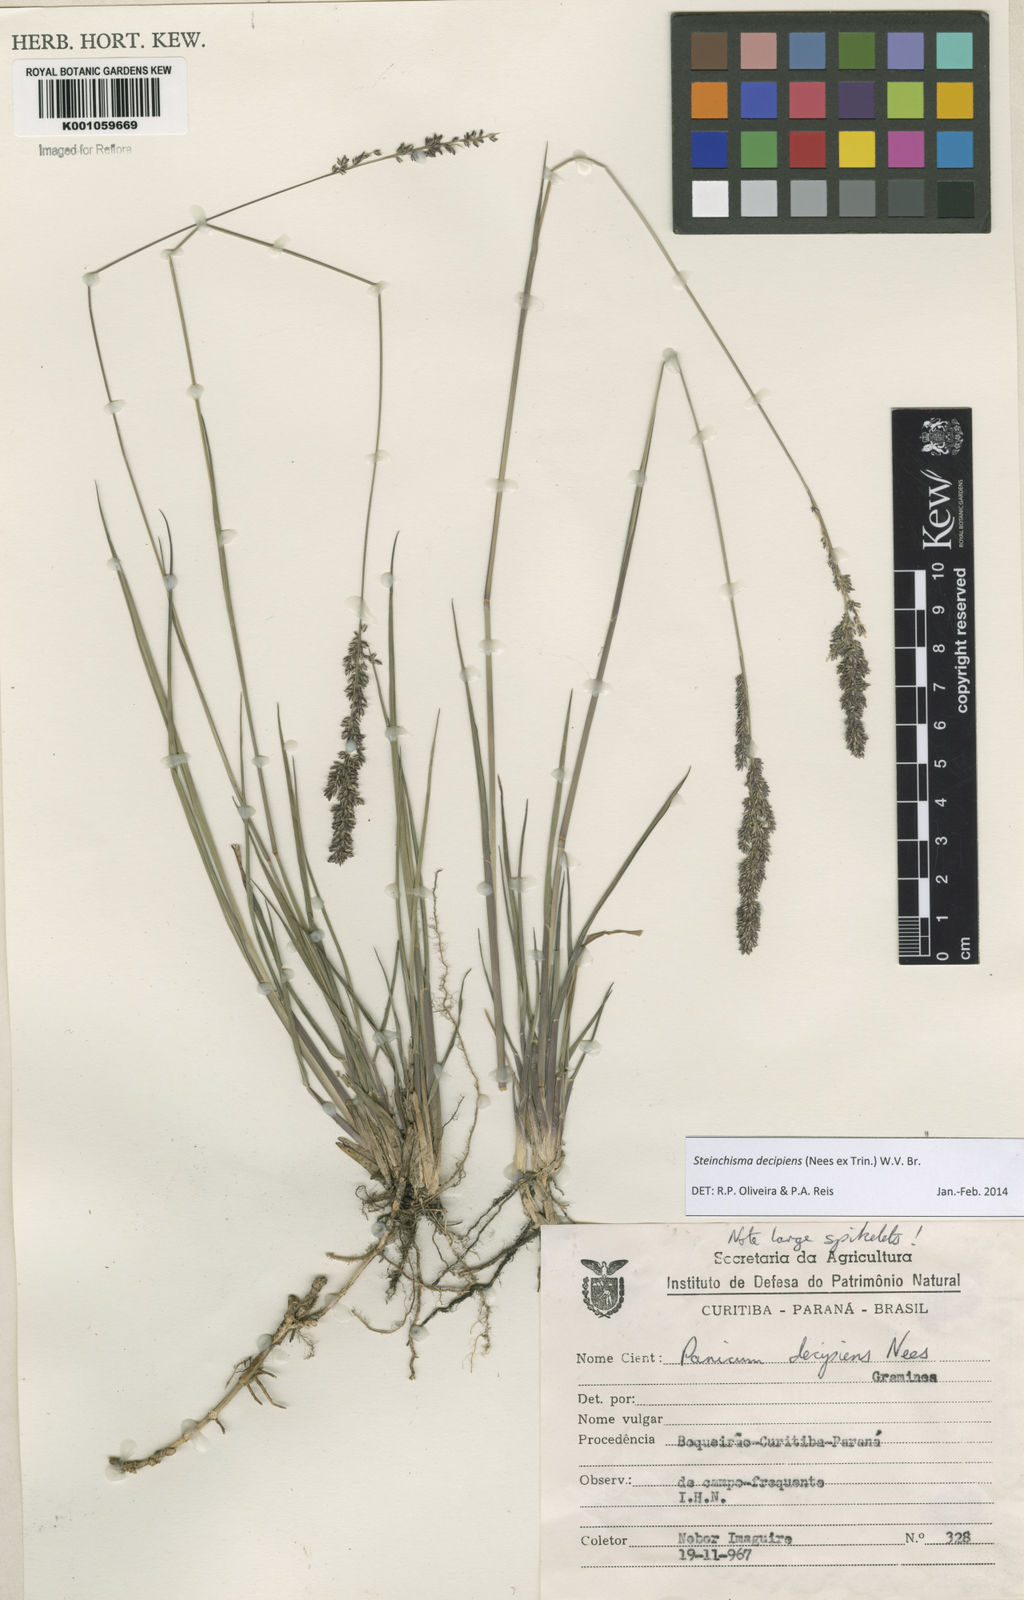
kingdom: Plantae
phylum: Tracheophyta
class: Liliopsida
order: Poales
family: Poaceae
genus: Steinchisma
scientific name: Steinchisma decipiens
